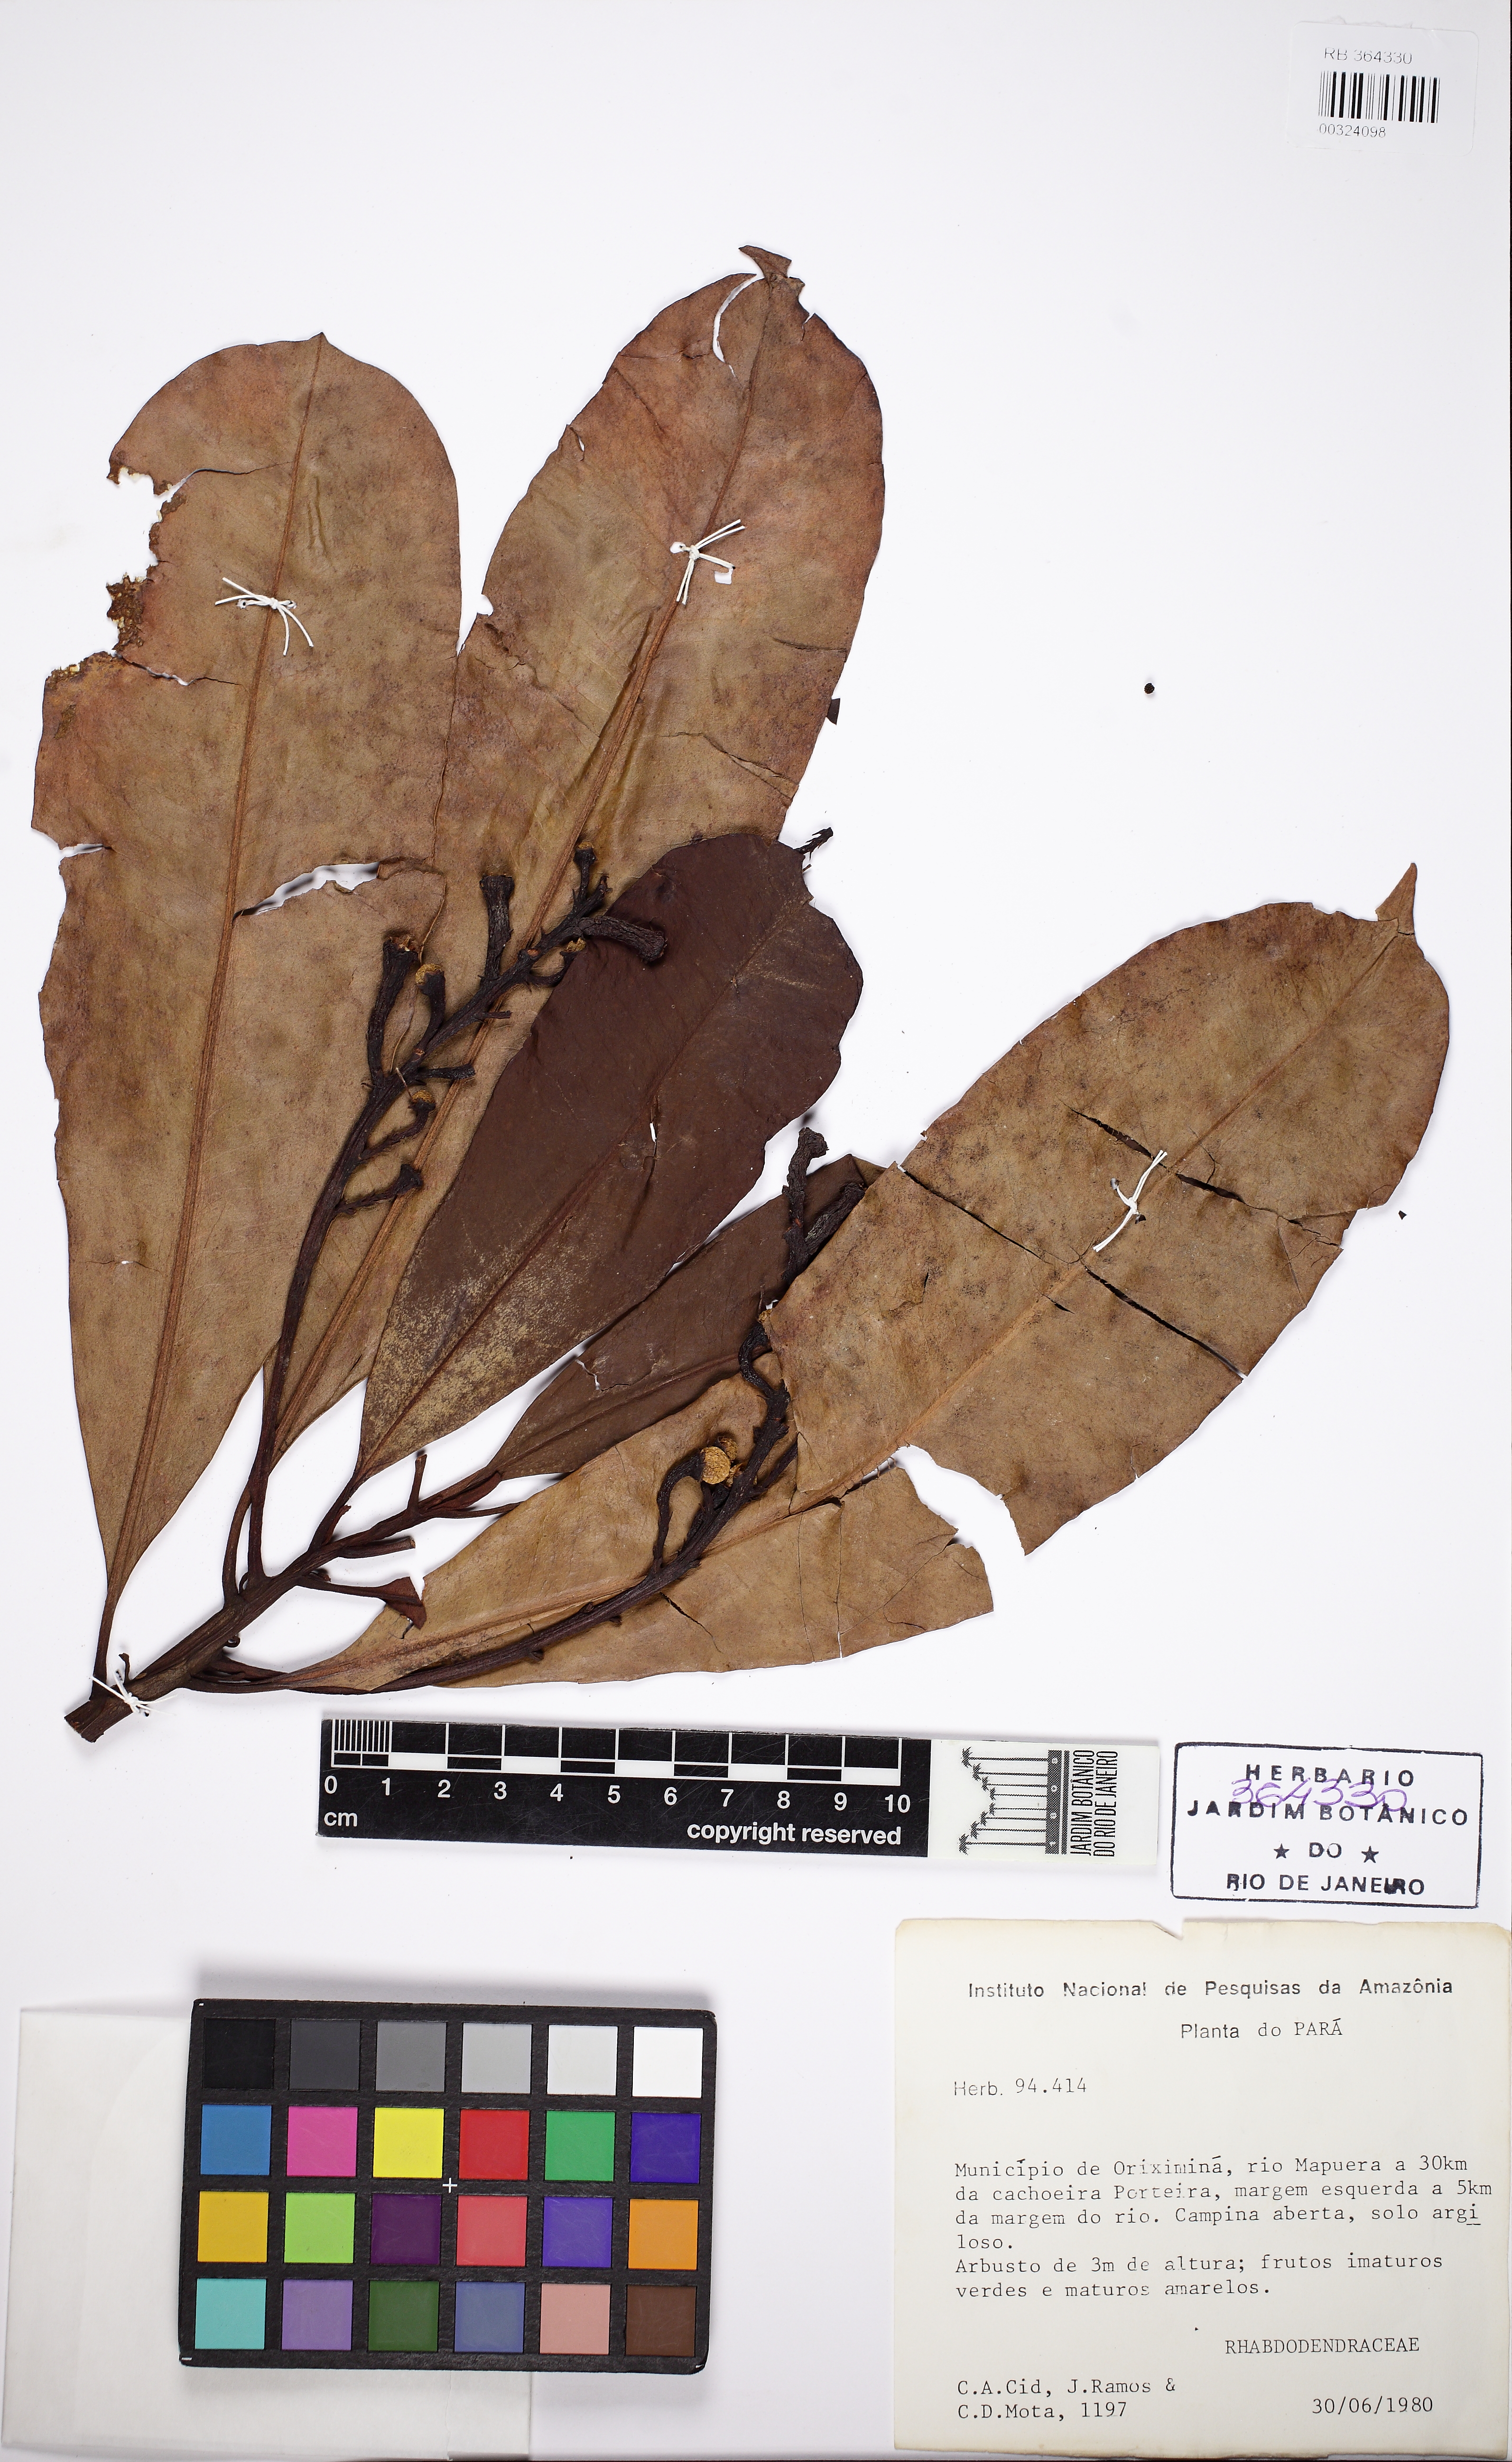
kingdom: Plantae
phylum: Tracheophyta
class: Magnoliopsida
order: Caryophyllales
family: Rhabdodendraceae
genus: Rhabdodendron
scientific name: Rhabdodendron
